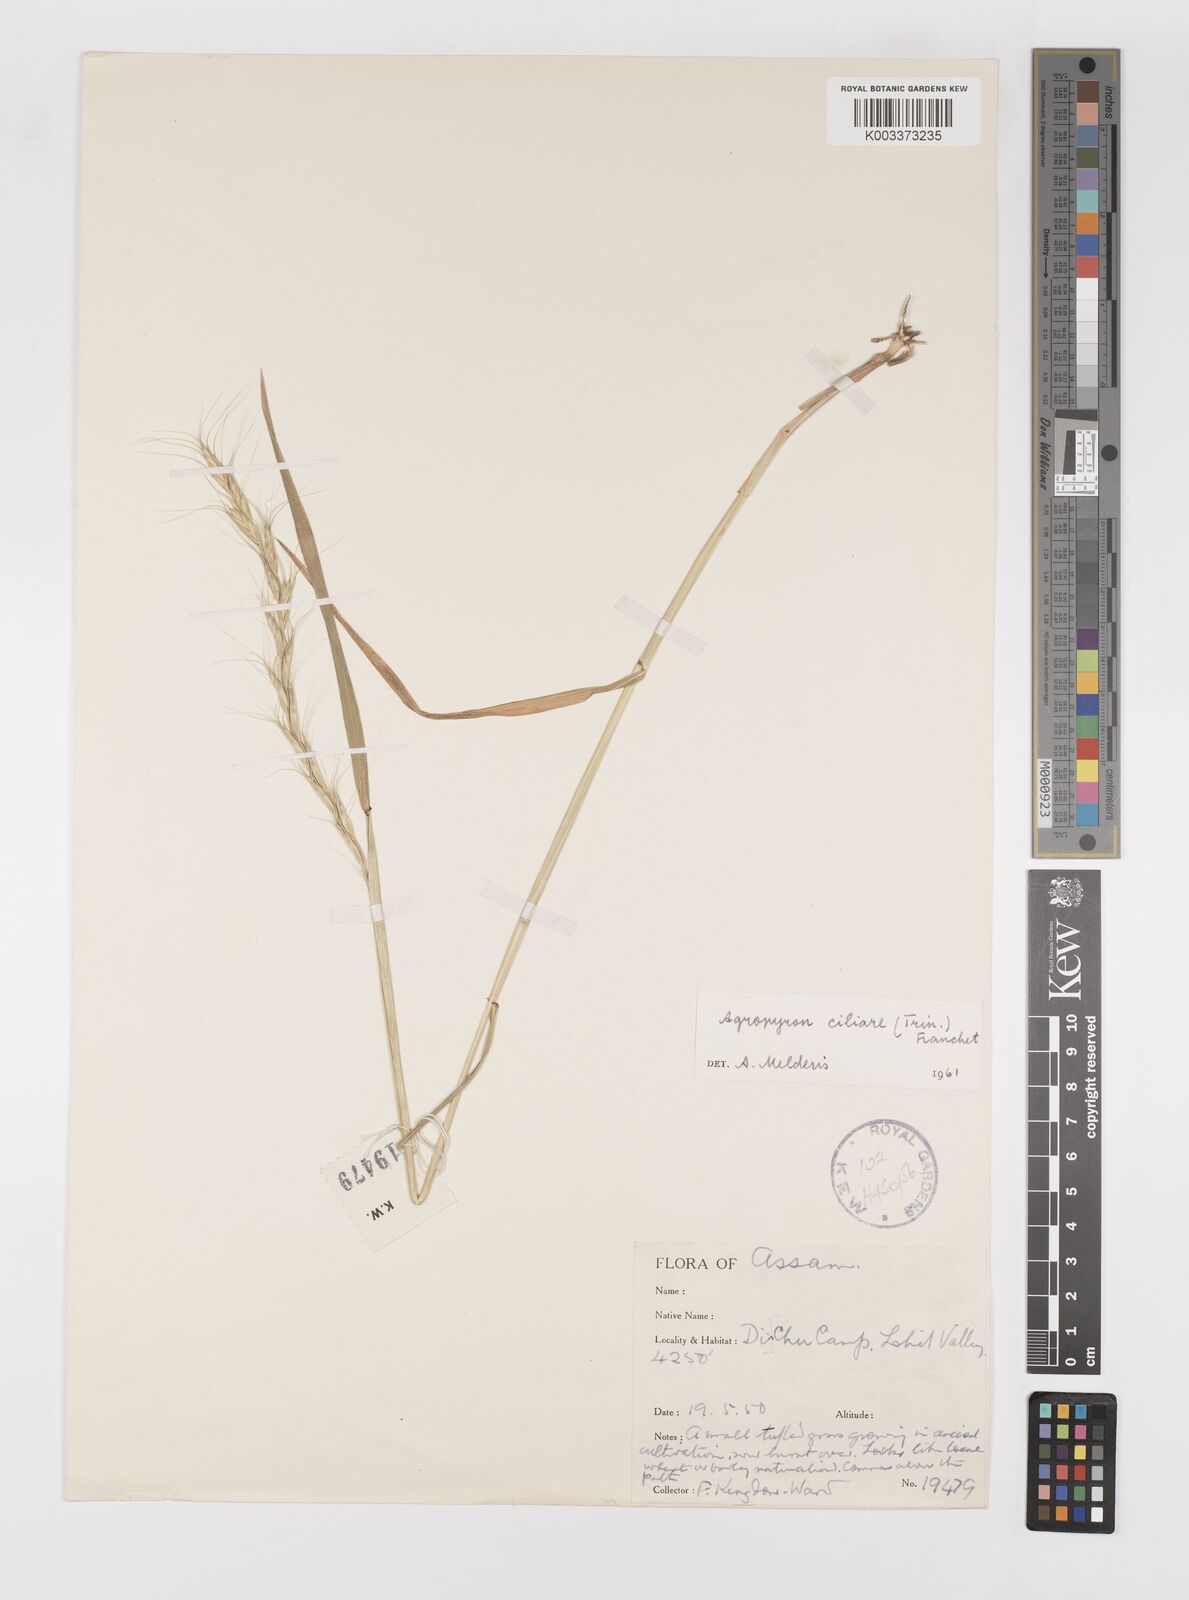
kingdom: Plantae
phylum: Tracheophyta
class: Liliopsida
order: Poales
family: Poaceae
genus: Elymus
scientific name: Elymus ciliaris
